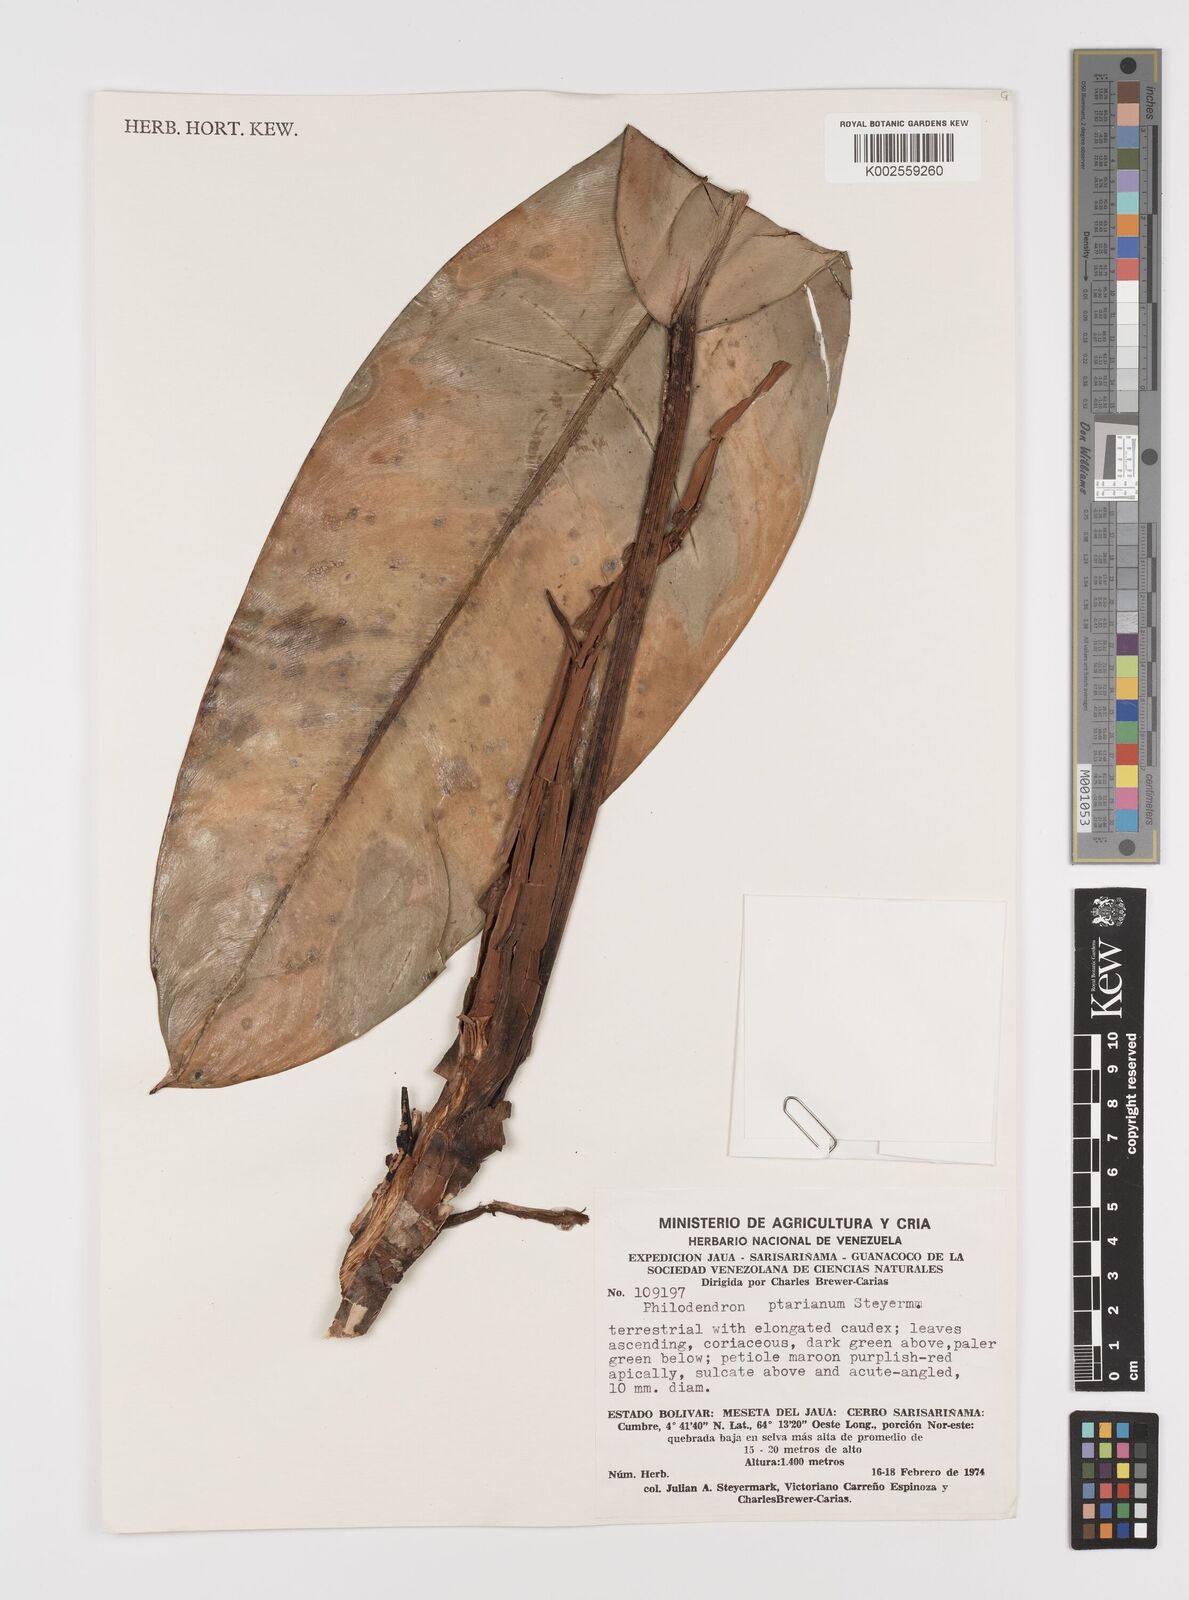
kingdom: Plantae
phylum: Tracheophyta
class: Liliopsida
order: Alismatales
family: Araceae
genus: Philodendron
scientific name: Philodendron callosum
